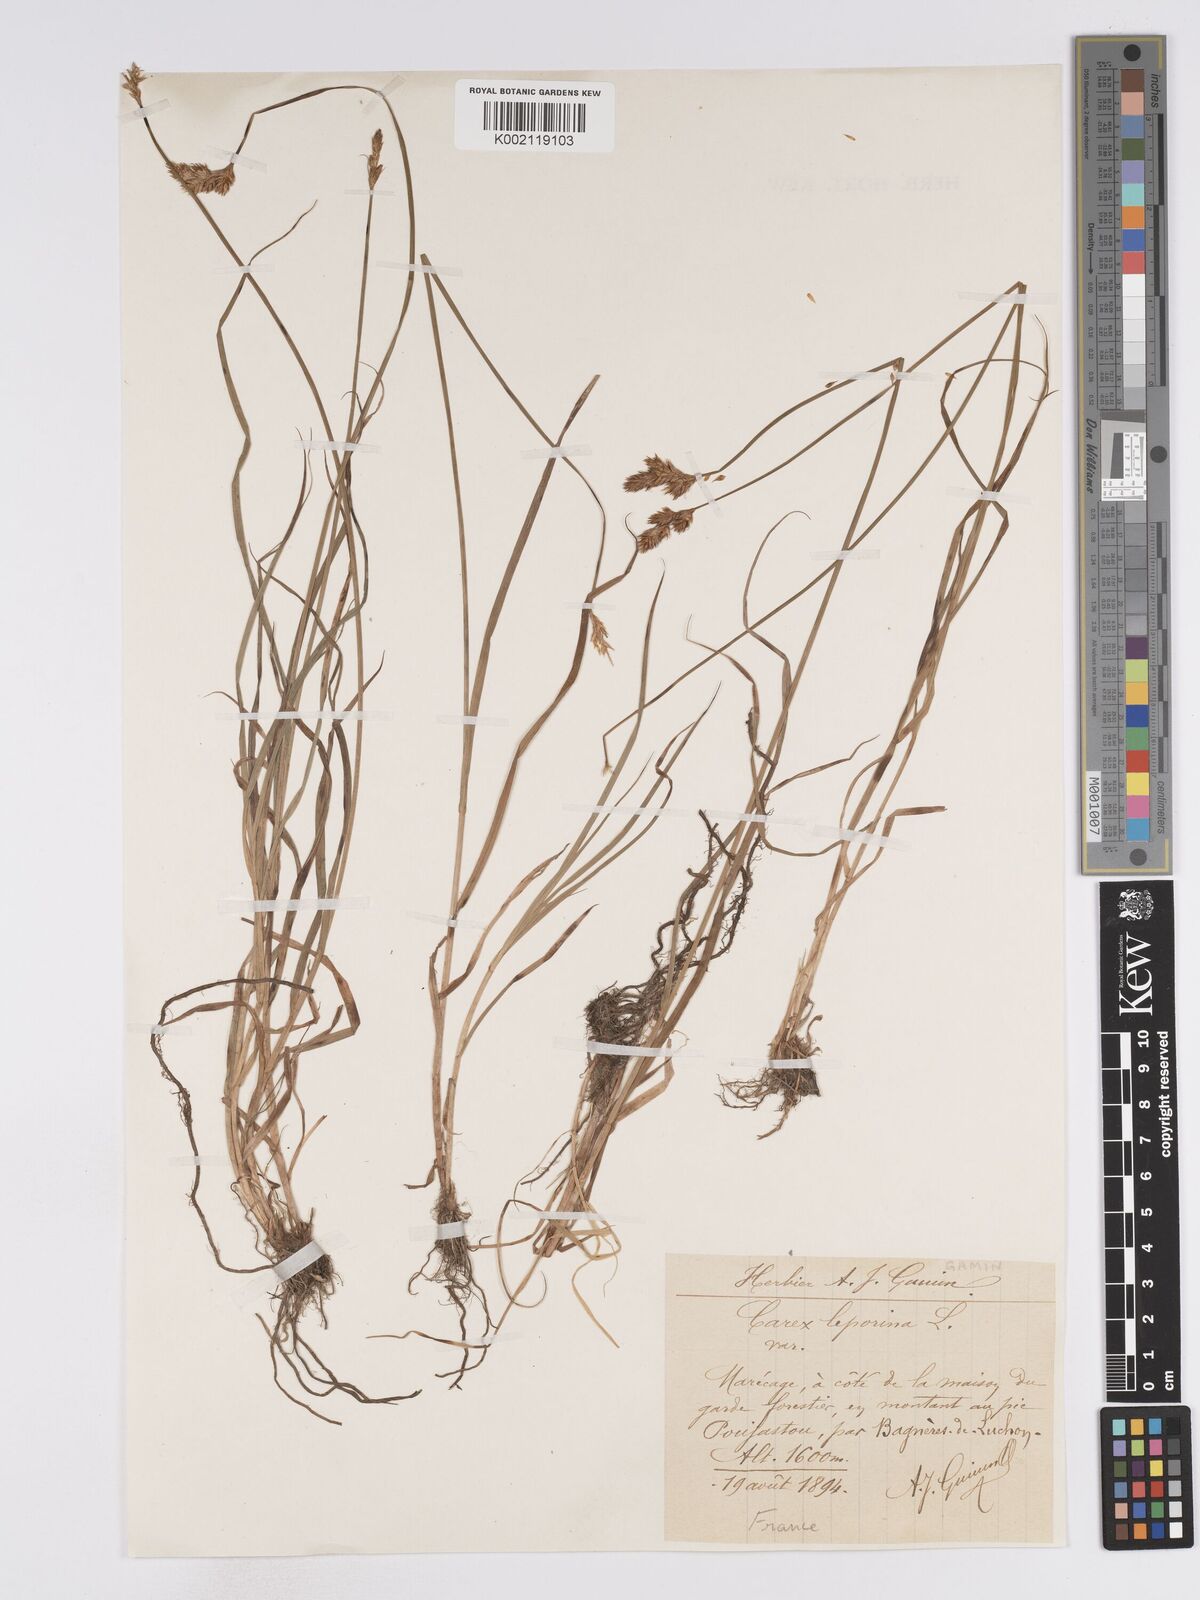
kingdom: Plantae
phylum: Tracheophyta
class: Liliopsida
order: Poales
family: Cyperaceae
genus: Carex
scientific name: Carex leporina
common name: Oval sedge
